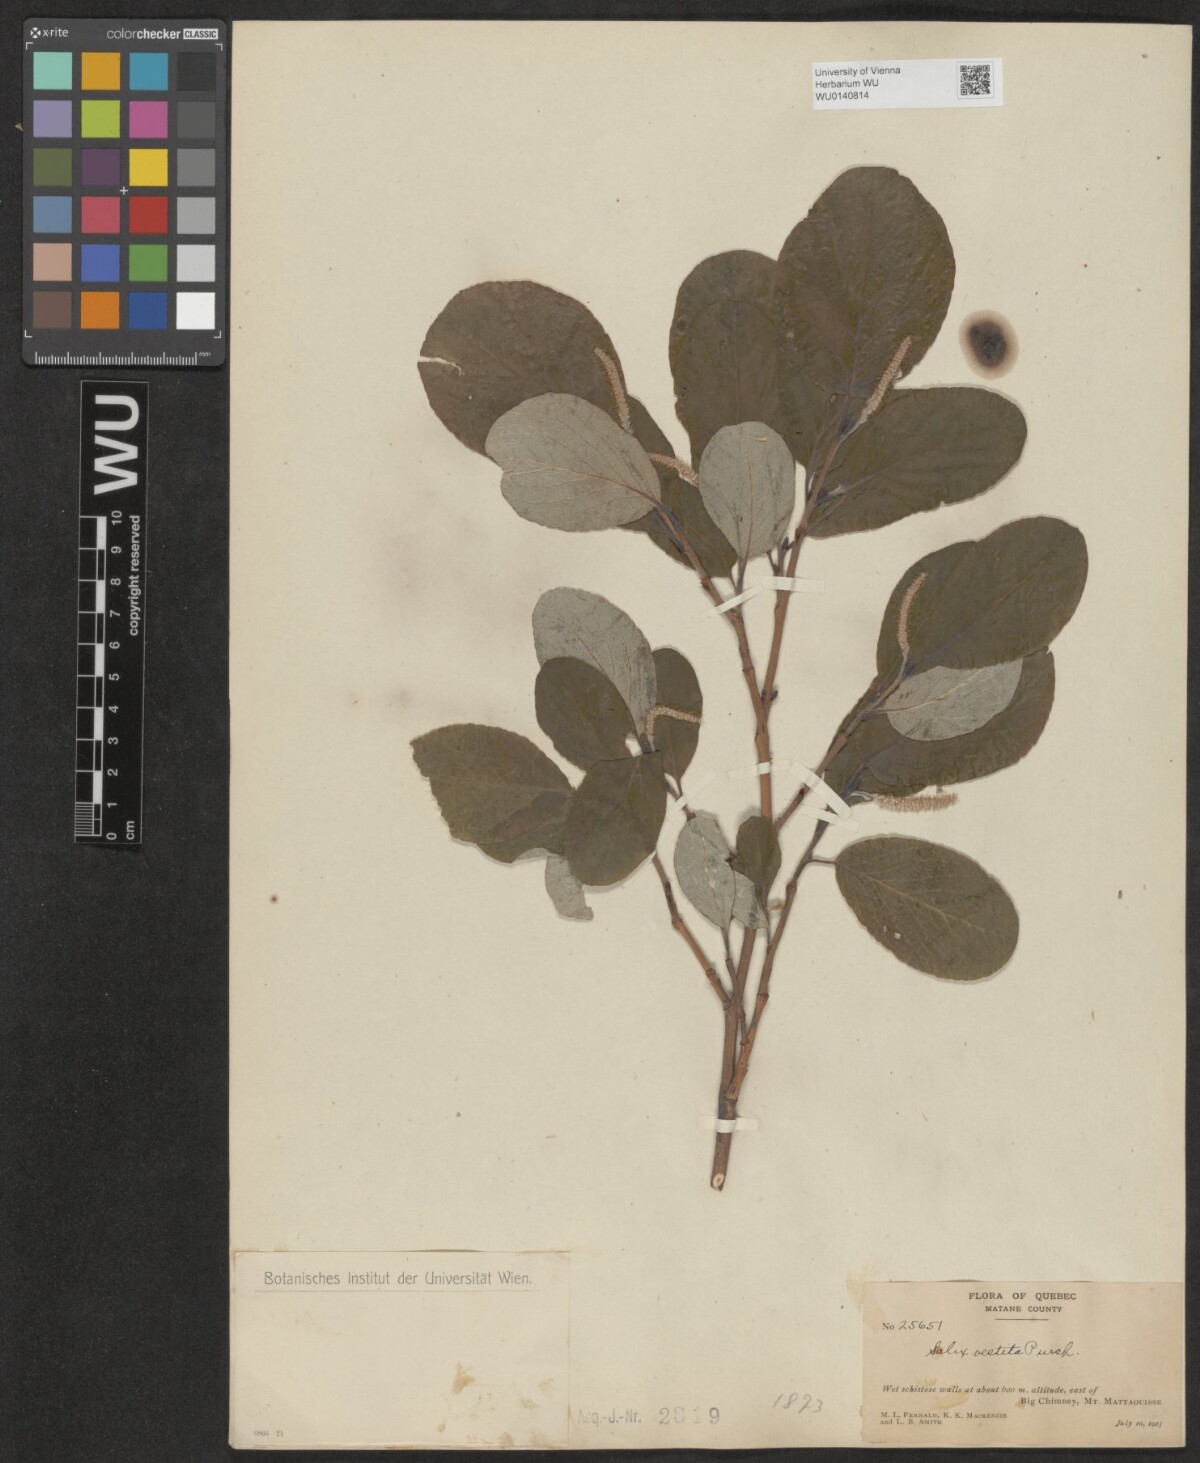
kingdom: Plantae
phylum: Tracheophyta
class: Magnoliopsida
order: Malpighiales
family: Salicaceae
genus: Salix
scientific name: Salix vestita
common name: Hairy willow
